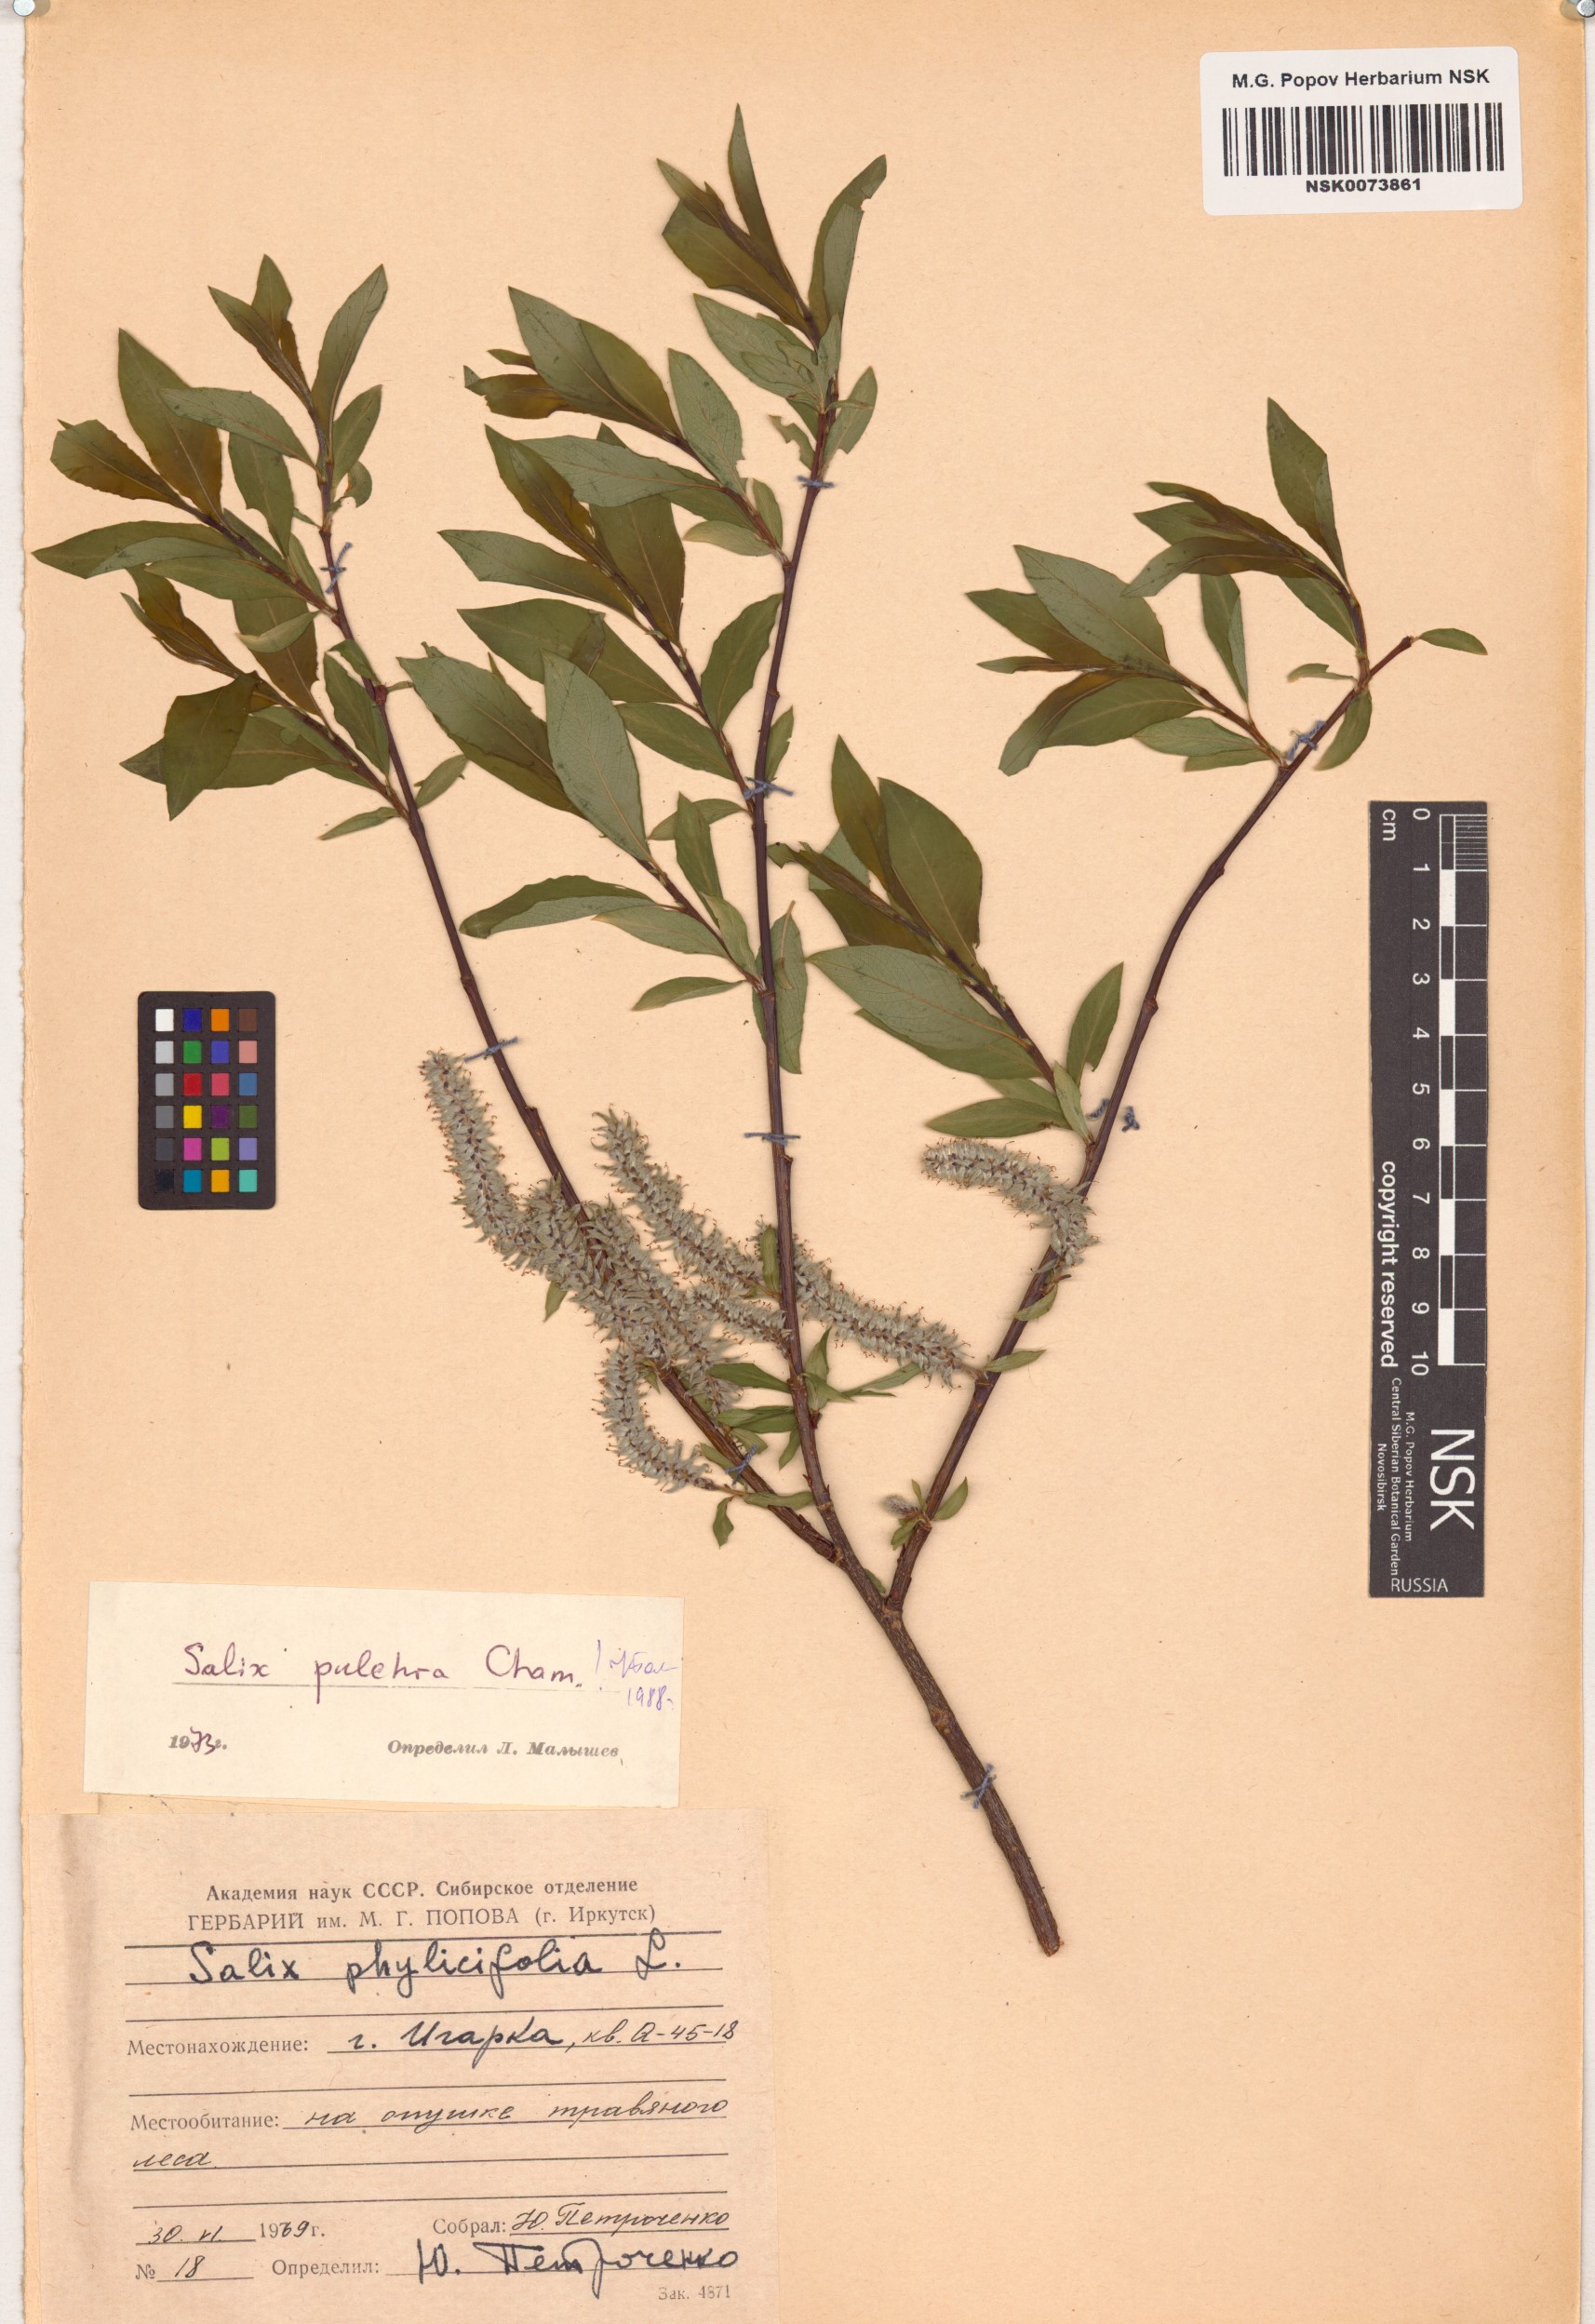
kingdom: Plantae
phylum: Tracheophyta
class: Magnoliopsida
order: Malpighiales
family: Salicaceae
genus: Salix
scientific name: Salix pulchra
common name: Diamond-leaved willow
